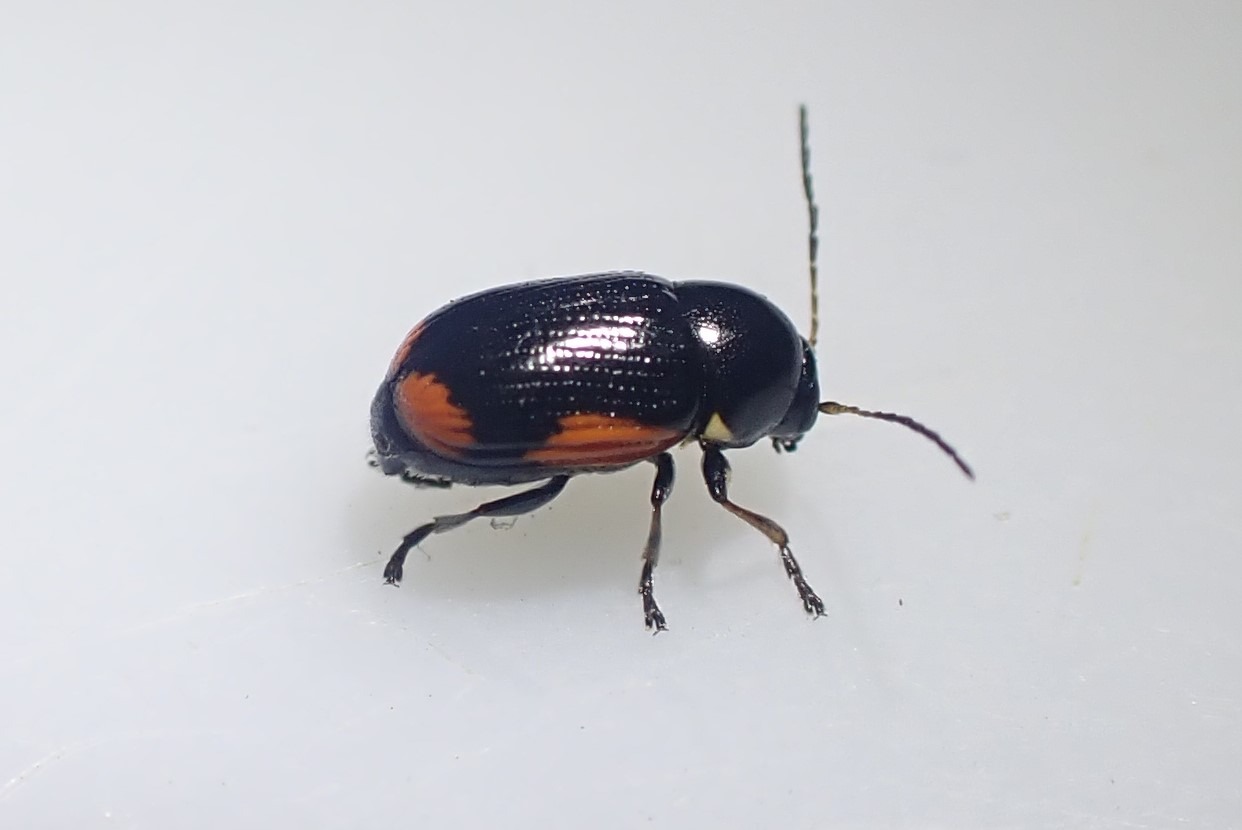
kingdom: Animalia
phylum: Arthropoda
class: Insecta
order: Coleoptera
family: Chrysomelidae
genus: Cryptocephalus
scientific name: Cryptocephalus moraei
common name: Perikonfaldbille
